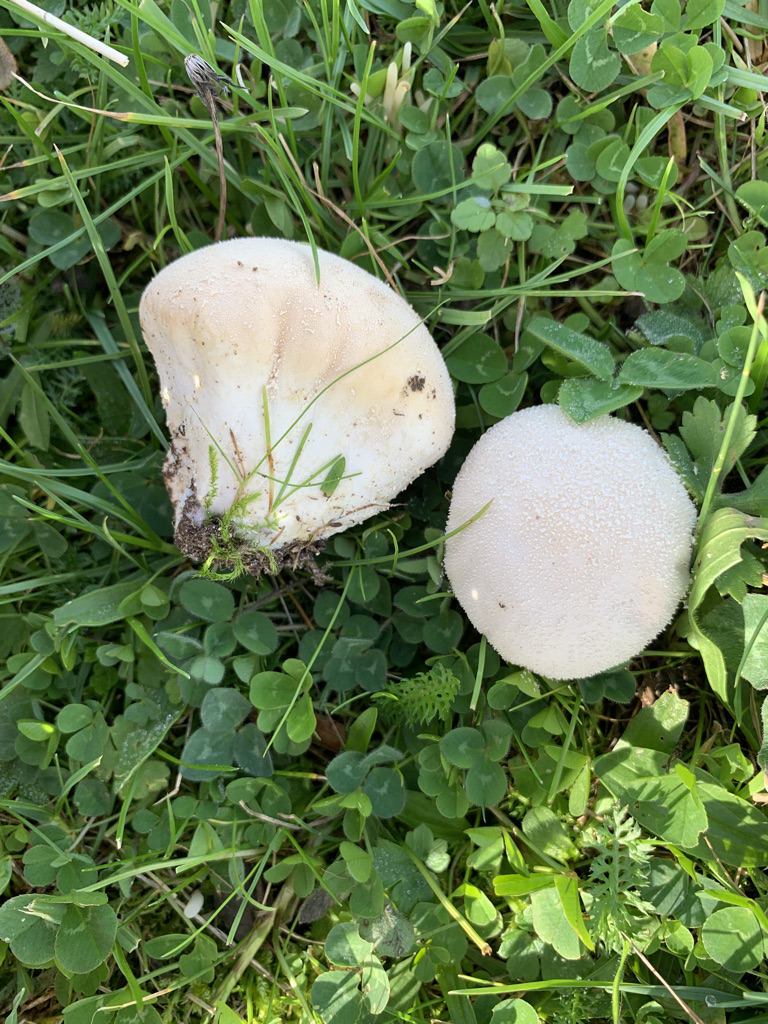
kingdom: Fungi
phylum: Basidiomycota
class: Agaricomycetes
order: Agaricales
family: Lycoperdaceae
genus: Lycoperdon
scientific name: Lycoperdon pratense
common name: flad støvbold
